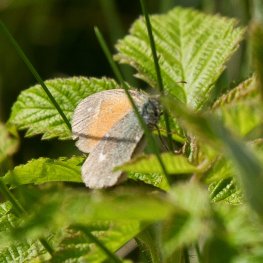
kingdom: Animalia
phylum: Arthropoda
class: Insecta
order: Lepidoptera
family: Nymphalidae
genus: Coenonympha
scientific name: Coenonympha tullia
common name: Large Heath
